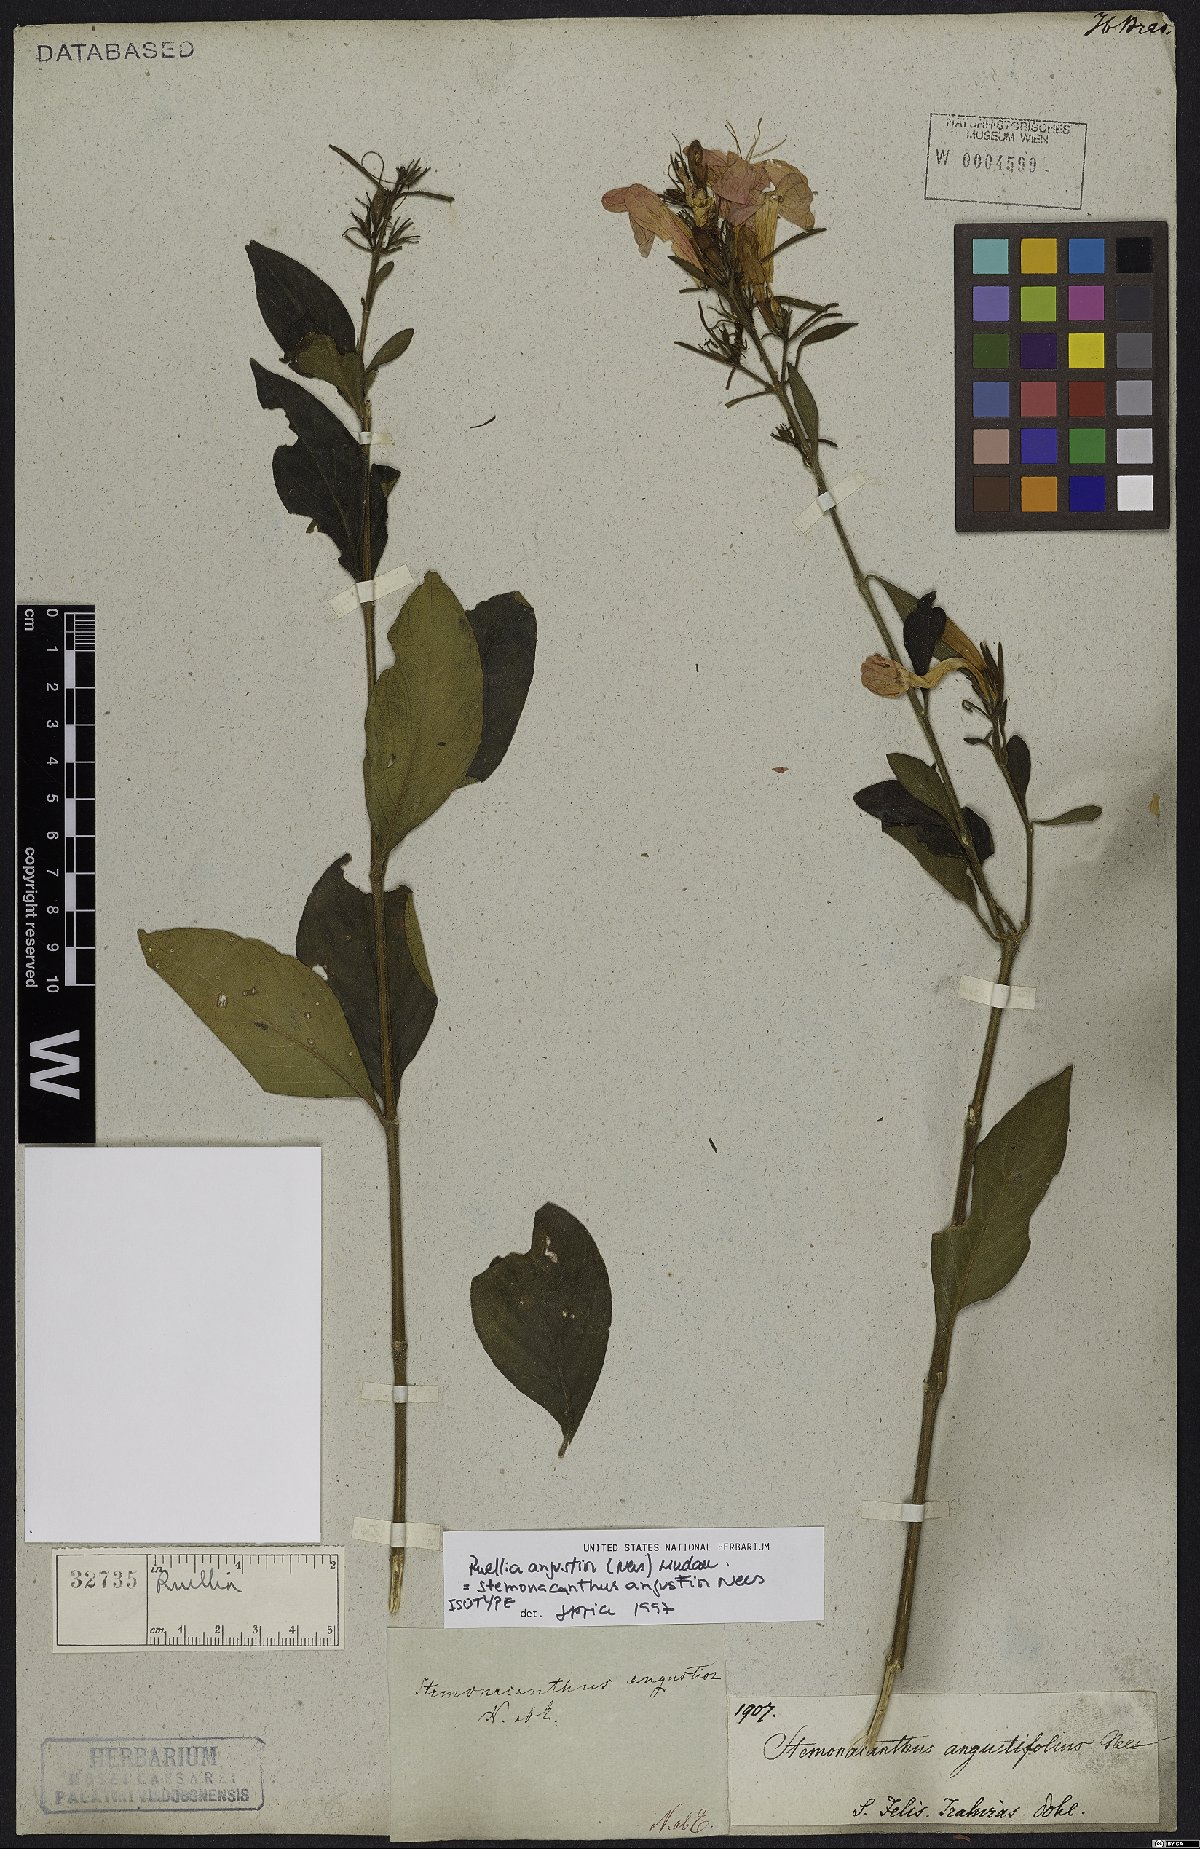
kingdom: Plantae
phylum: Tracheophyta
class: Magnoliopsida
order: Lamiales
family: Acanthaceae
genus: Ruellia
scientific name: Ruellia angustior
